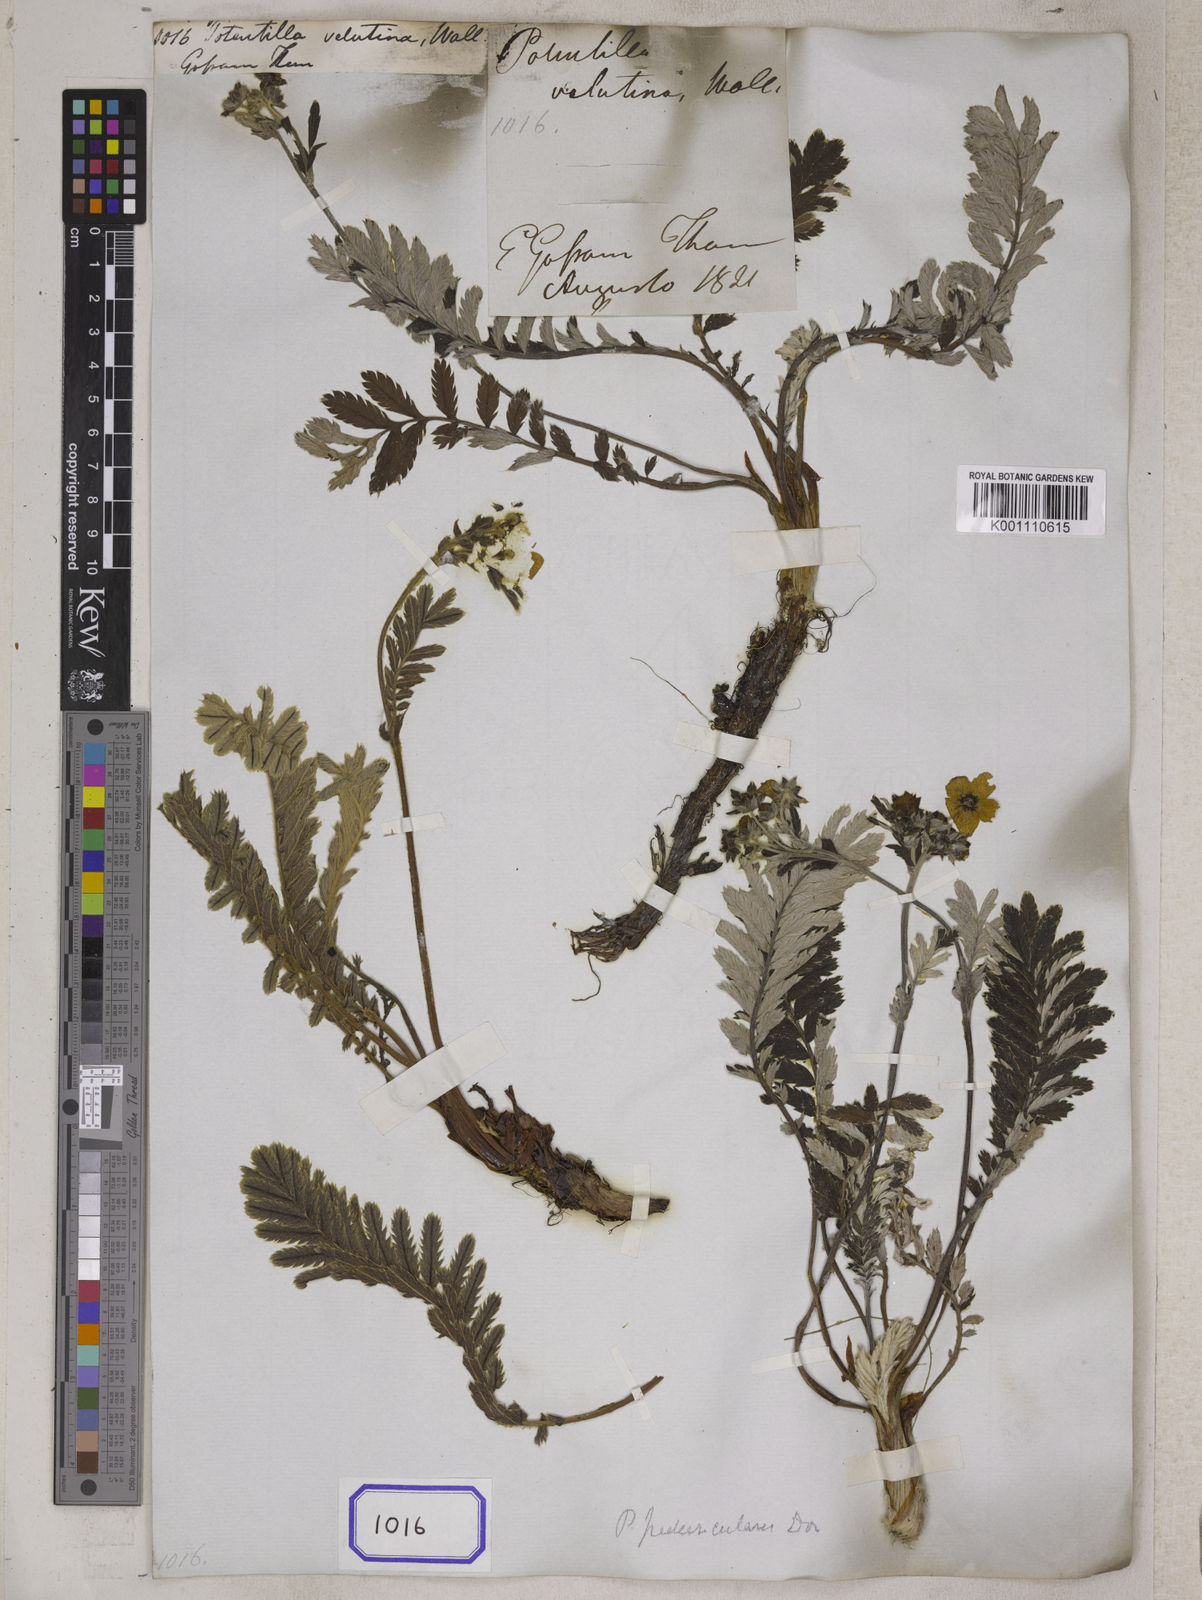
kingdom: Plantae
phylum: Tracheophyta
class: Magnoliopsida
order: Rosales
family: Rosaceae
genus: Argentina
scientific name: Argentina peduncularis
